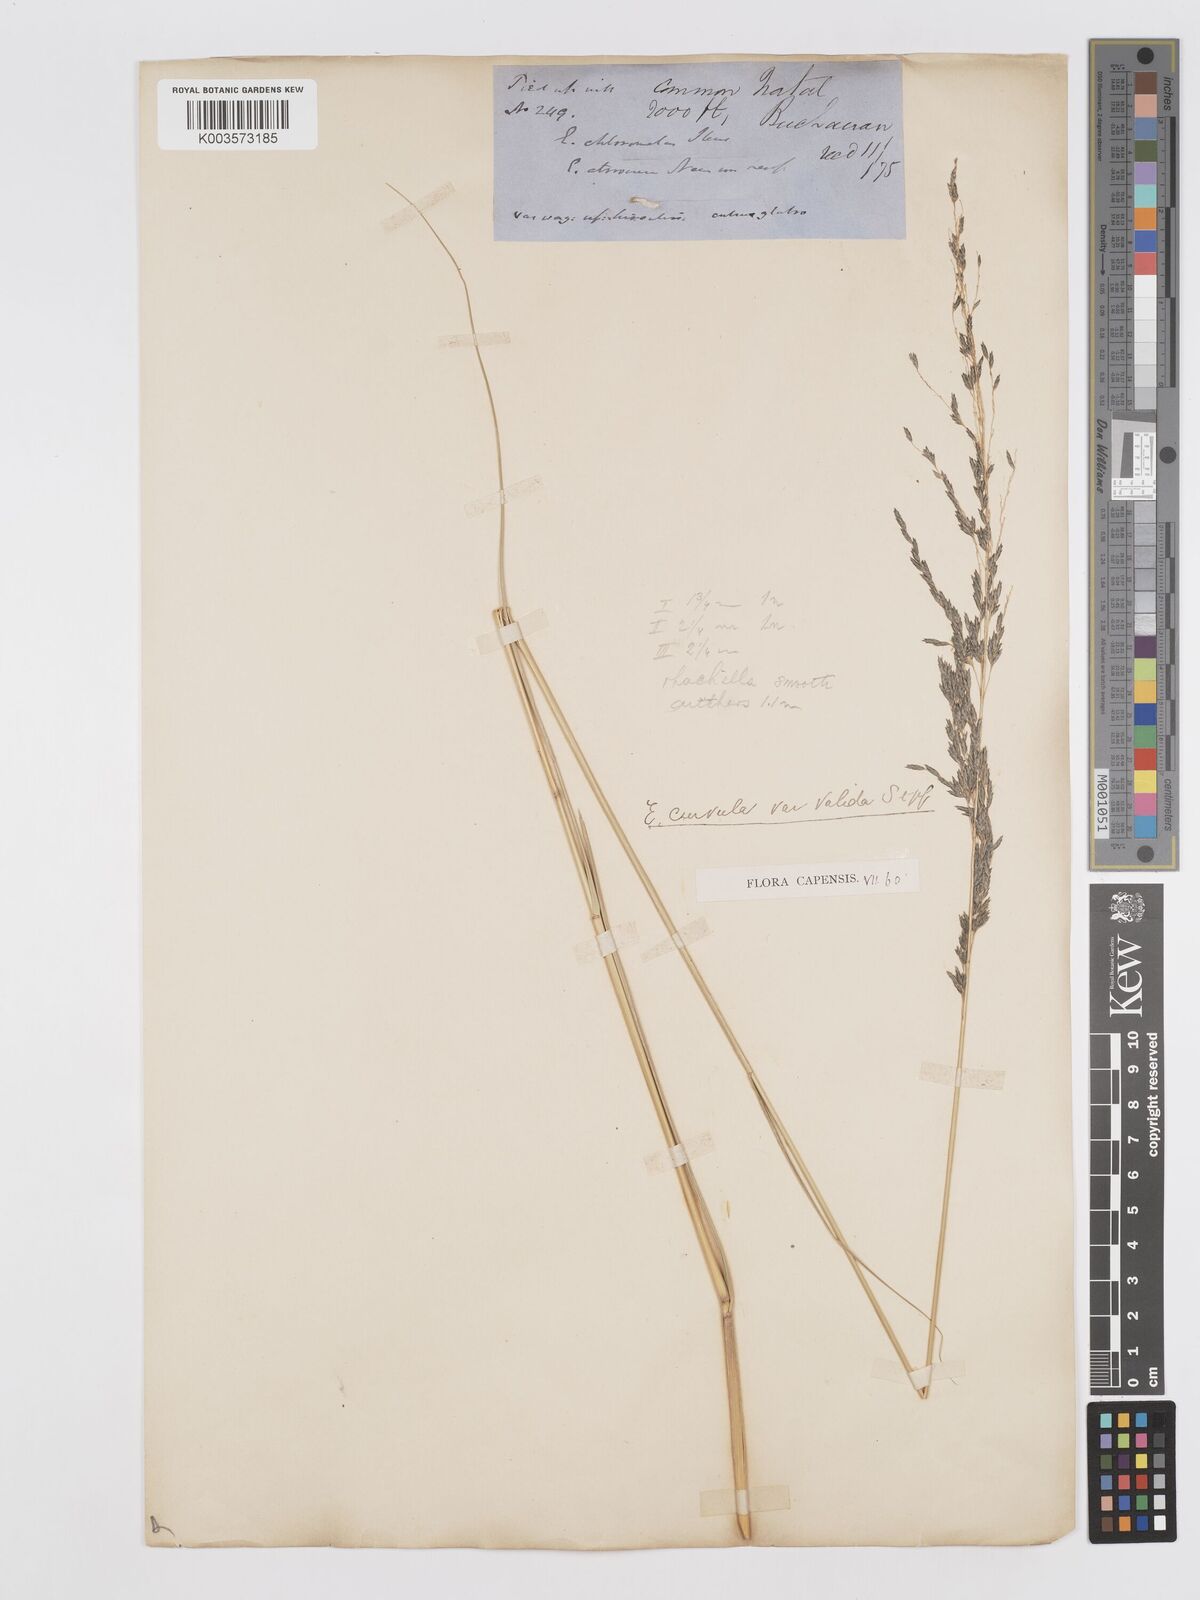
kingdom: Plantae
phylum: Tracheophyta
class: Liliopsida
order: Poales
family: Poaceae
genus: Eragrostis
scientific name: Eragrostis curvula
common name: African love-grass
